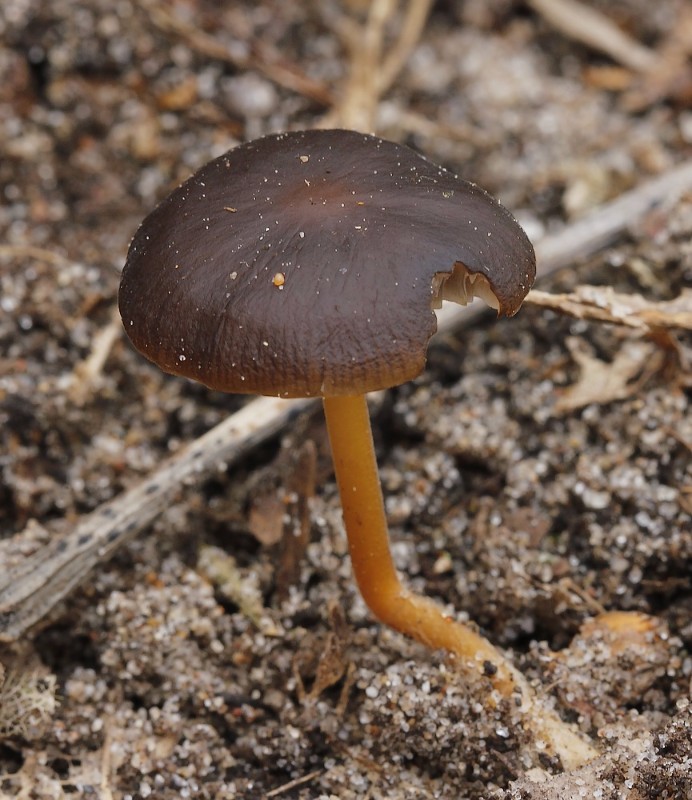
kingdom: Fungi
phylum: Basidiomycota
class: Agaricomycetes
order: Agaricales
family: Physalacriaceae
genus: Strobilurus
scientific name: Strobilurus
